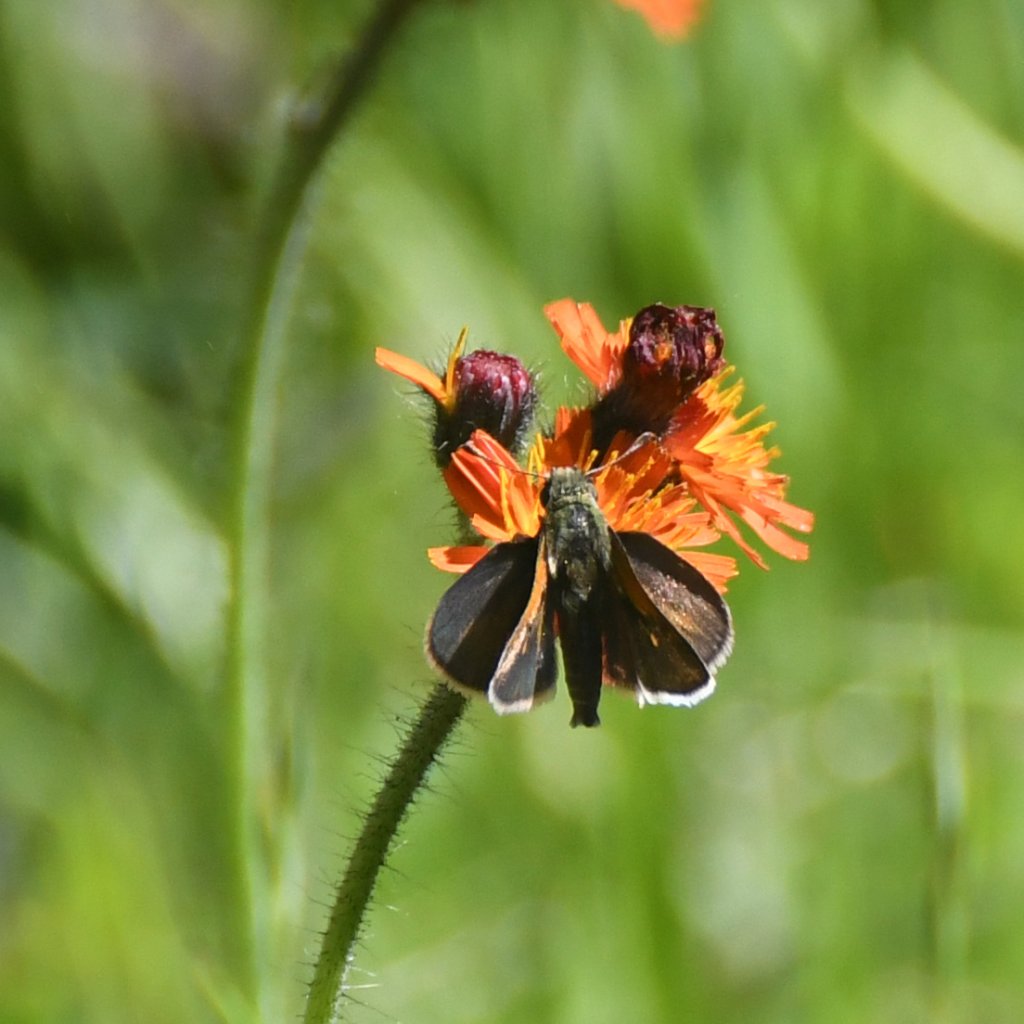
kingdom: Animalia
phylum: Arthropoda
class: Insecta
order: Lepidoptera
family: Hesperiidae
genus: Polites
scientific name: Polites themistocles
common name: Tawny-edged Skipper
